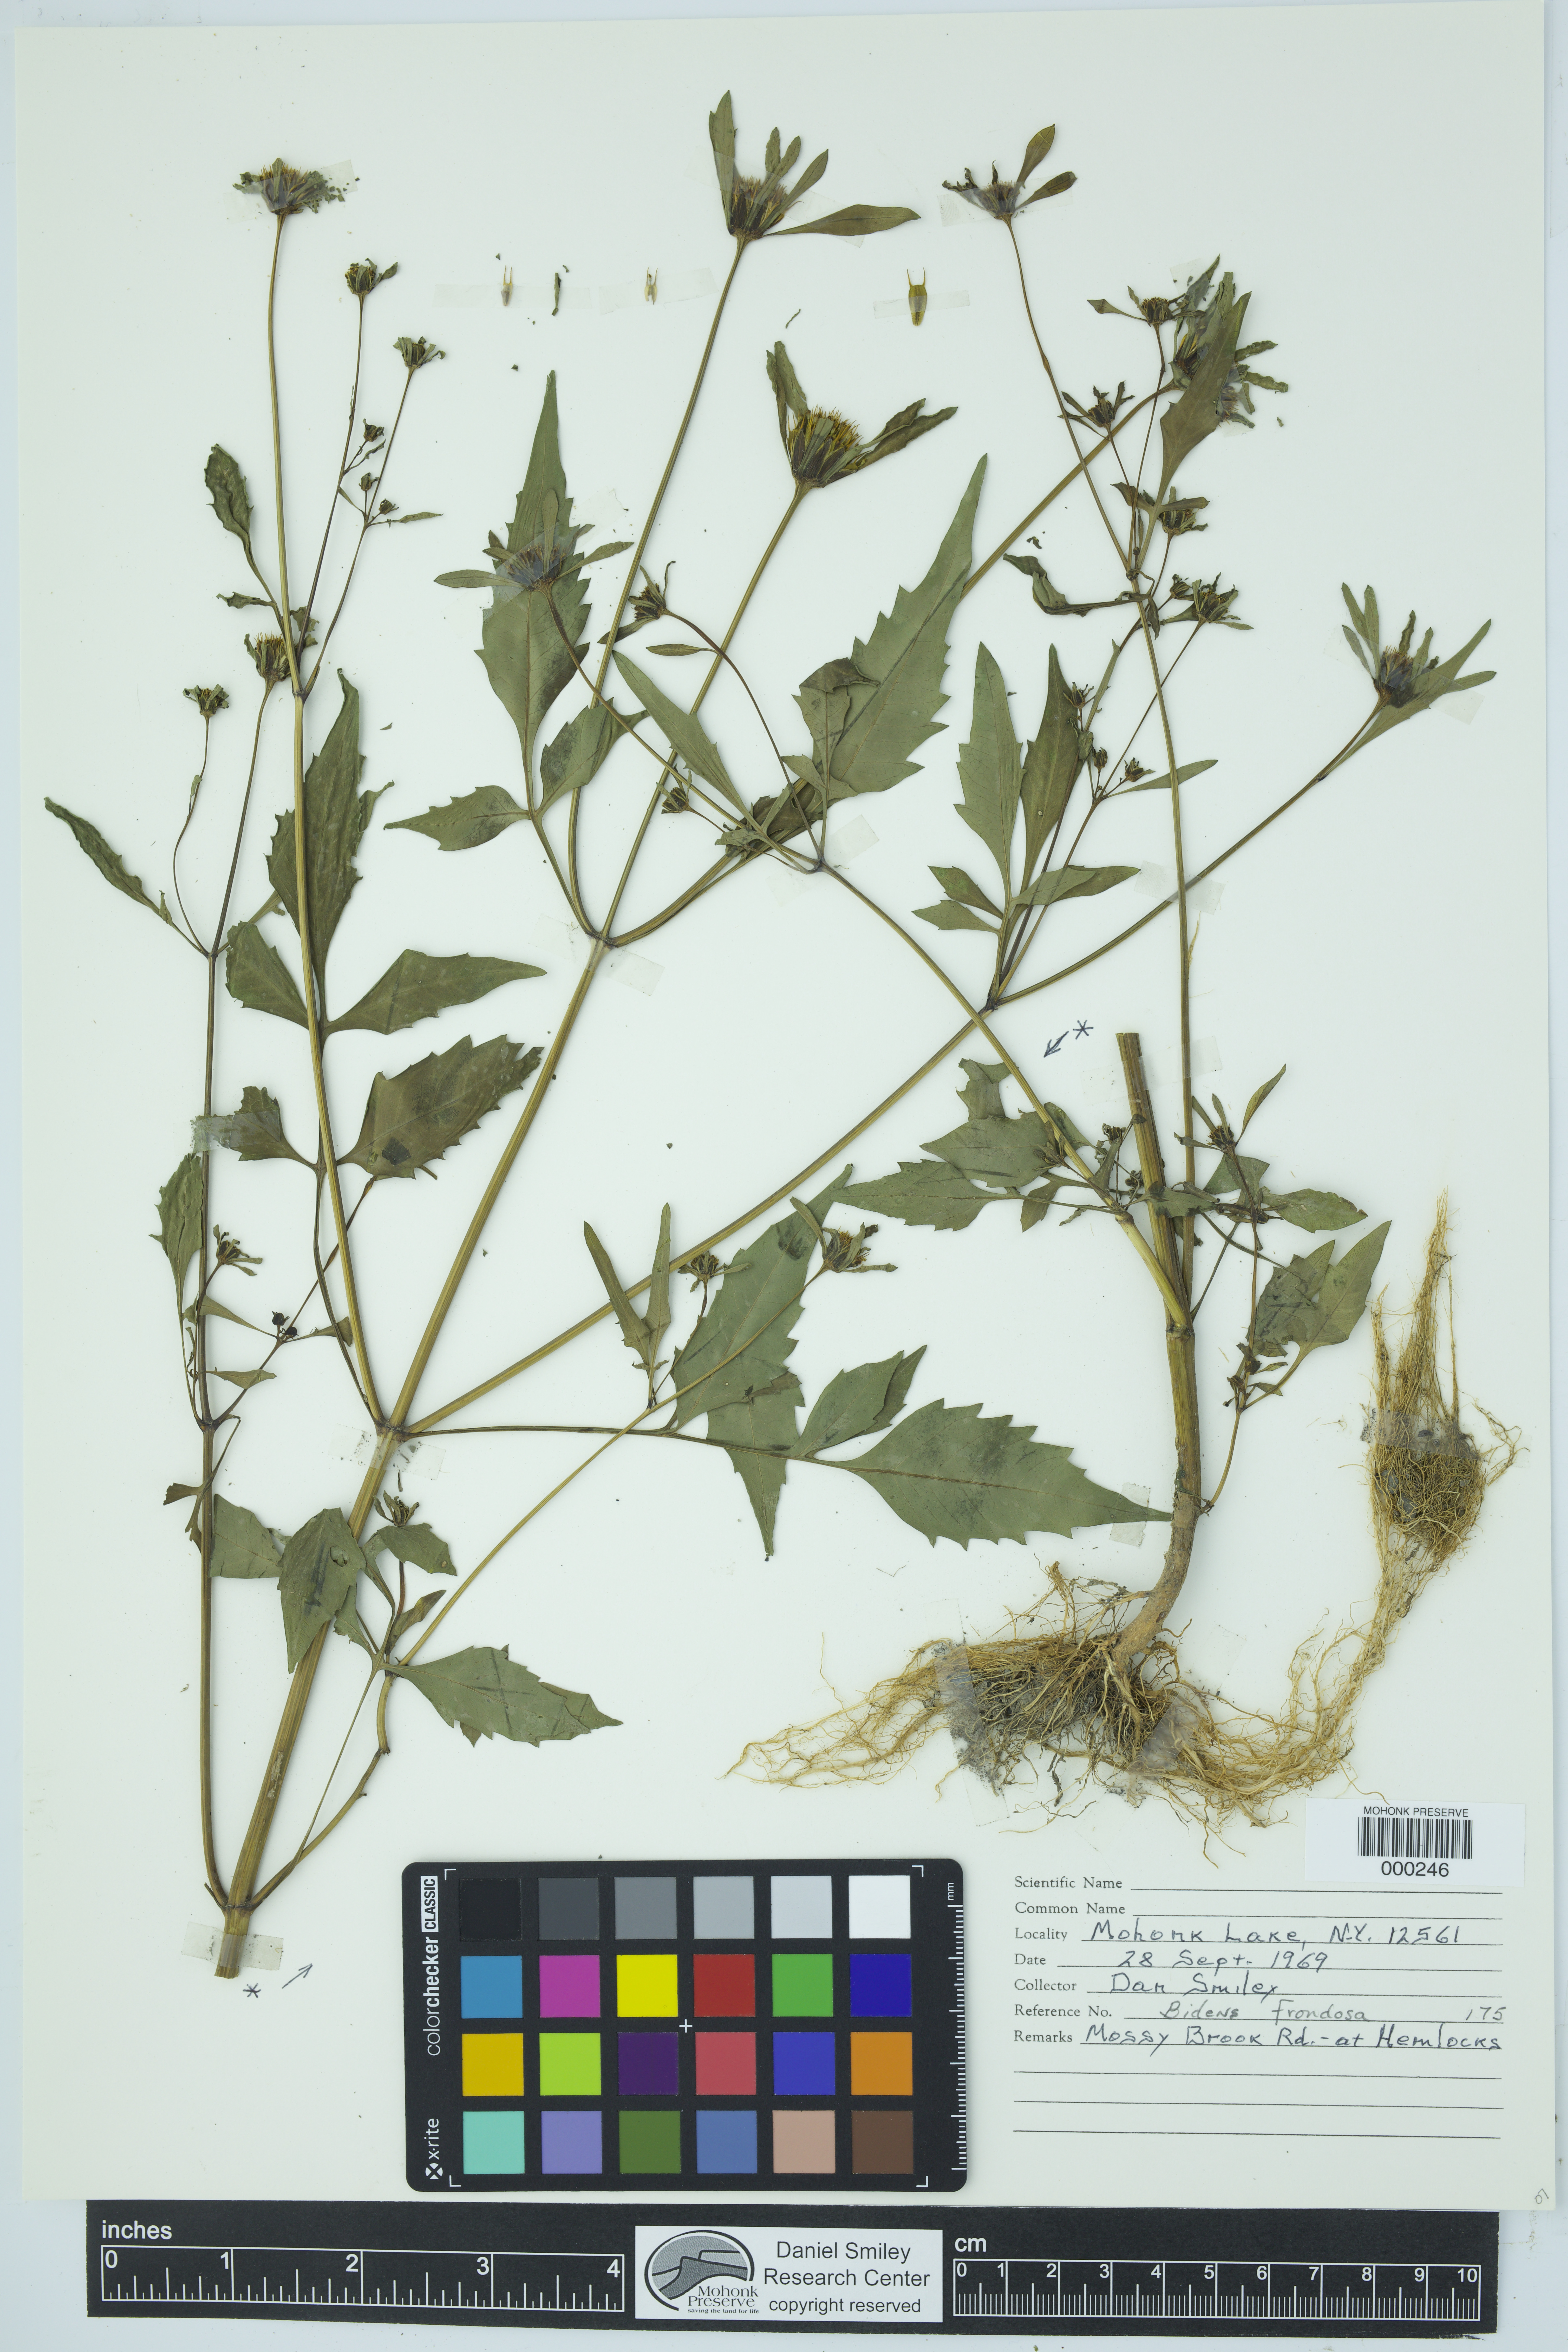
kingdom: Plantae
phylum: Tracheophyta
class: Magnoliopsida
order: Asterales
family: Asteraceae
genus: Bidens
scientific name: Bidens frondosa
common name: Beggarticks
